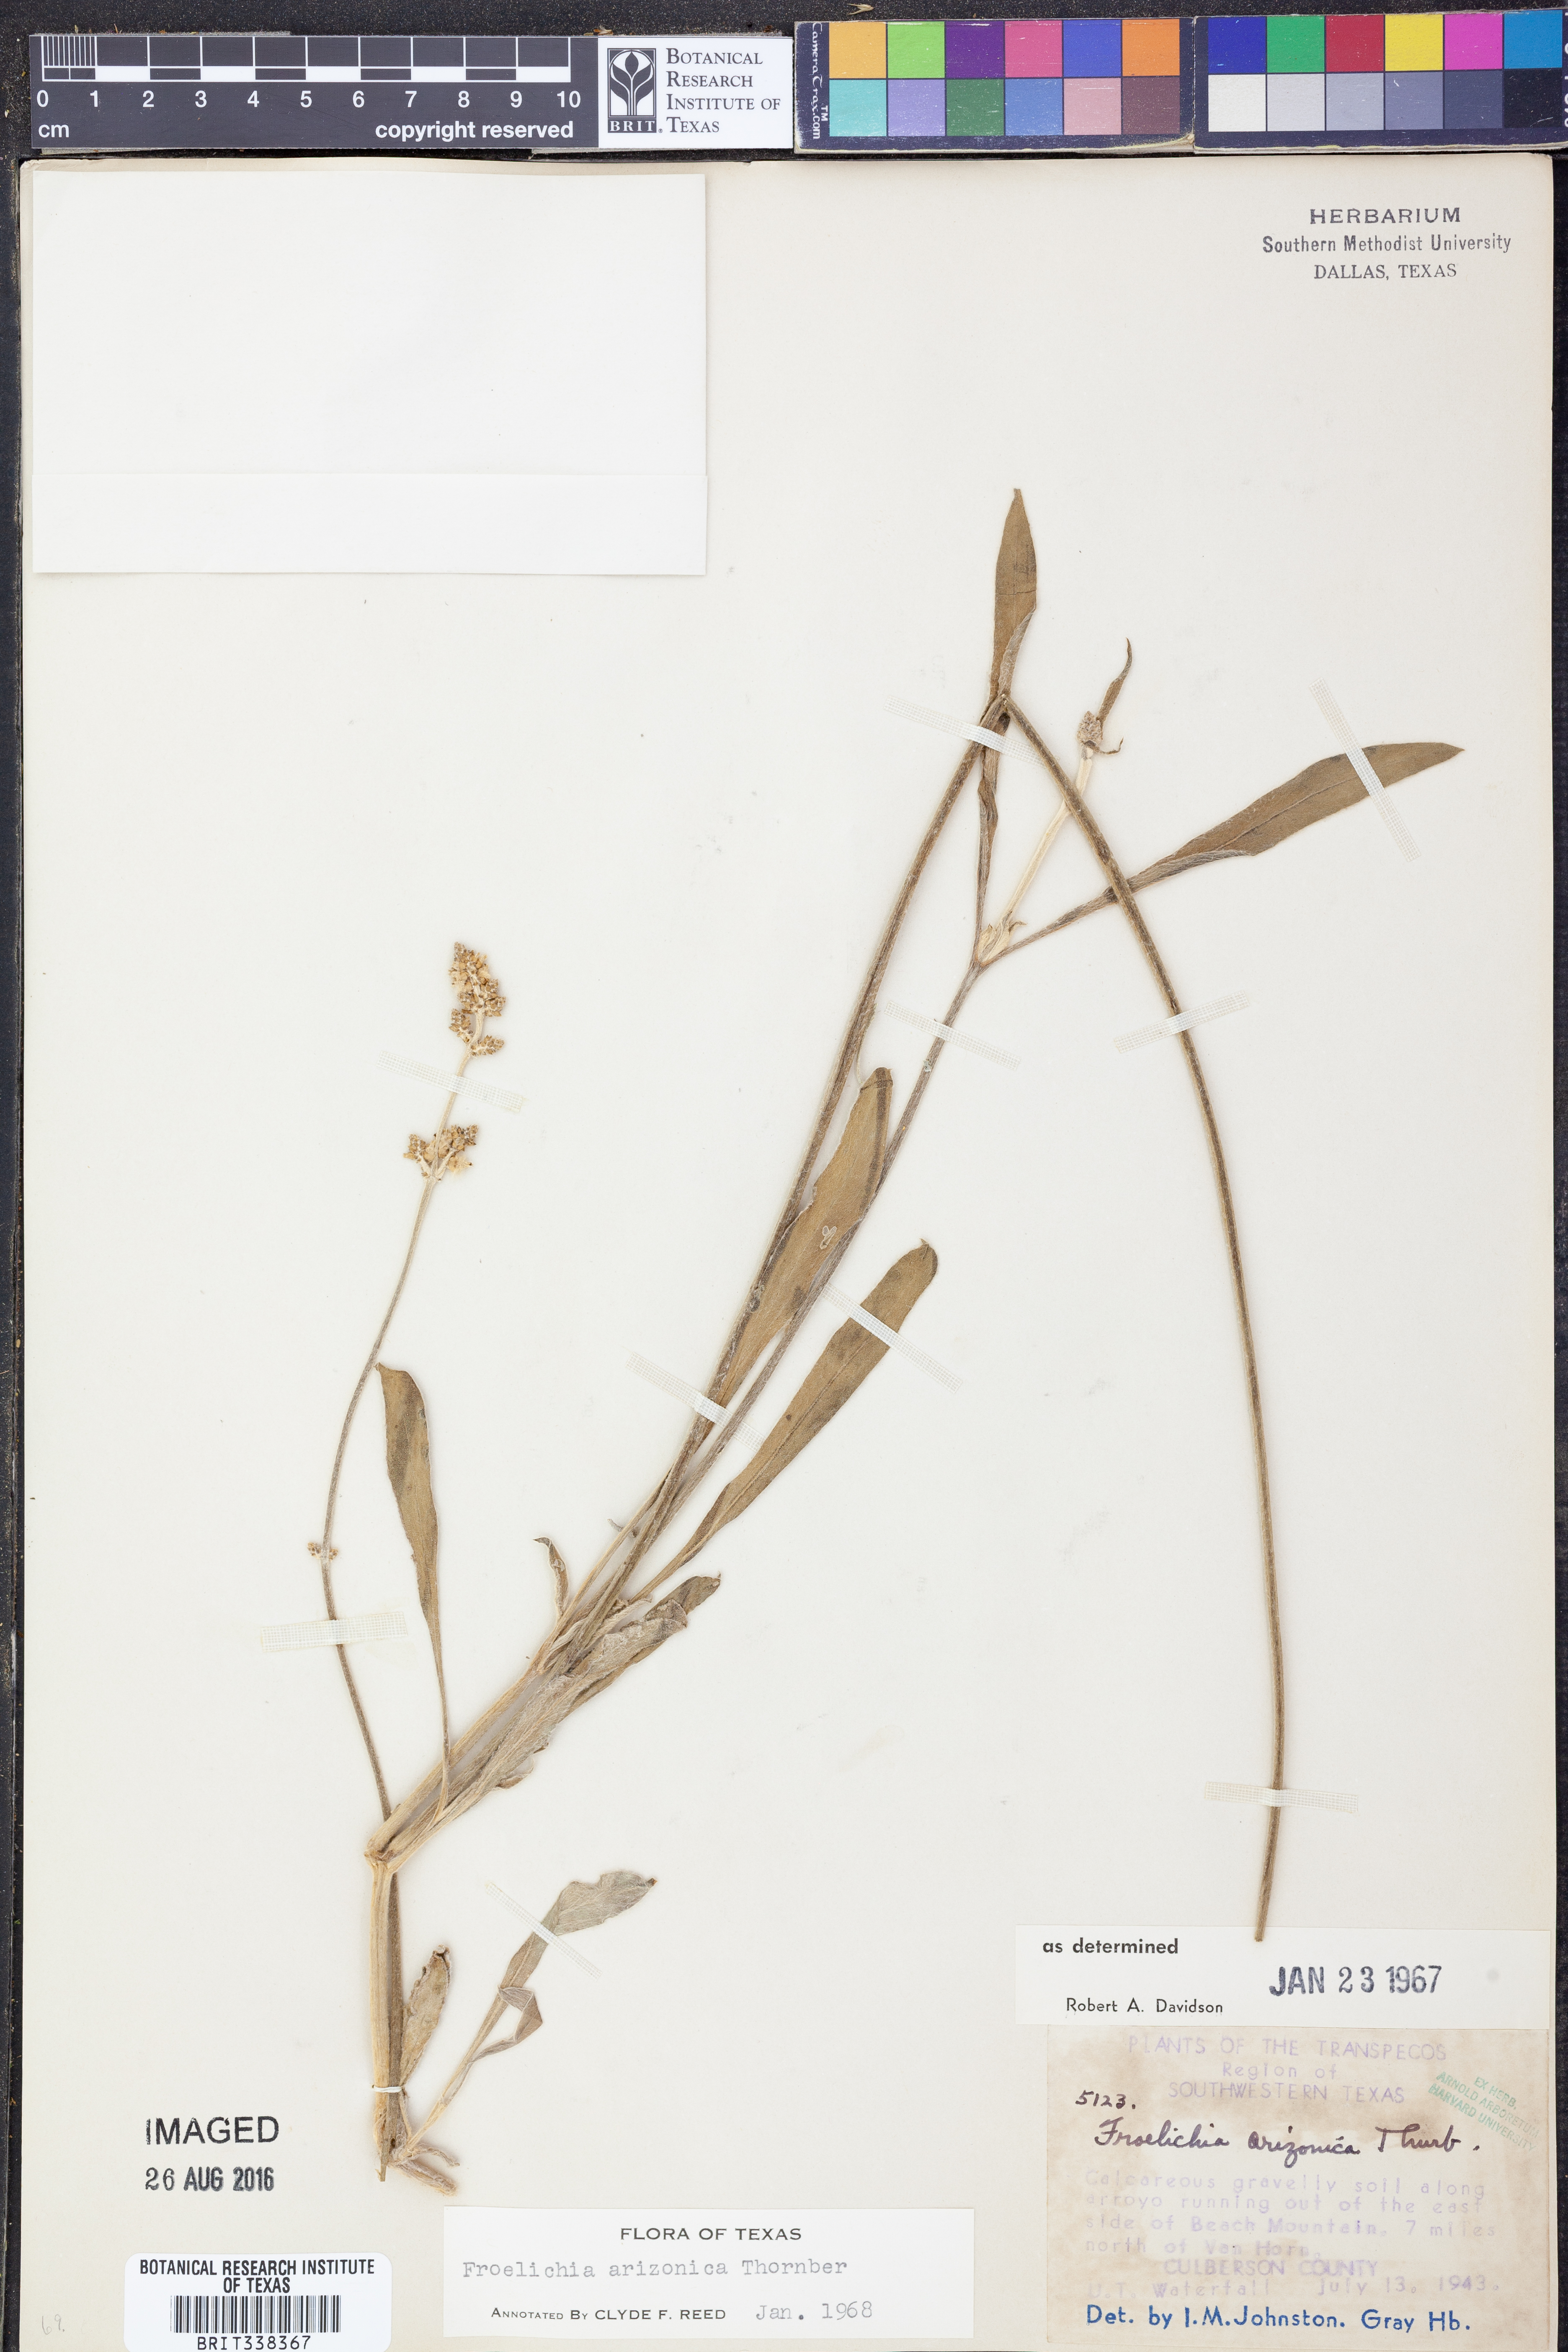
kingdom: Plantae
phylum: Tracheophyta
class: Magnoliopsida
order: Caryophyllales
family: Amaranthaceae
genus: Froelichia
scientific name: Froelichia arizonica
